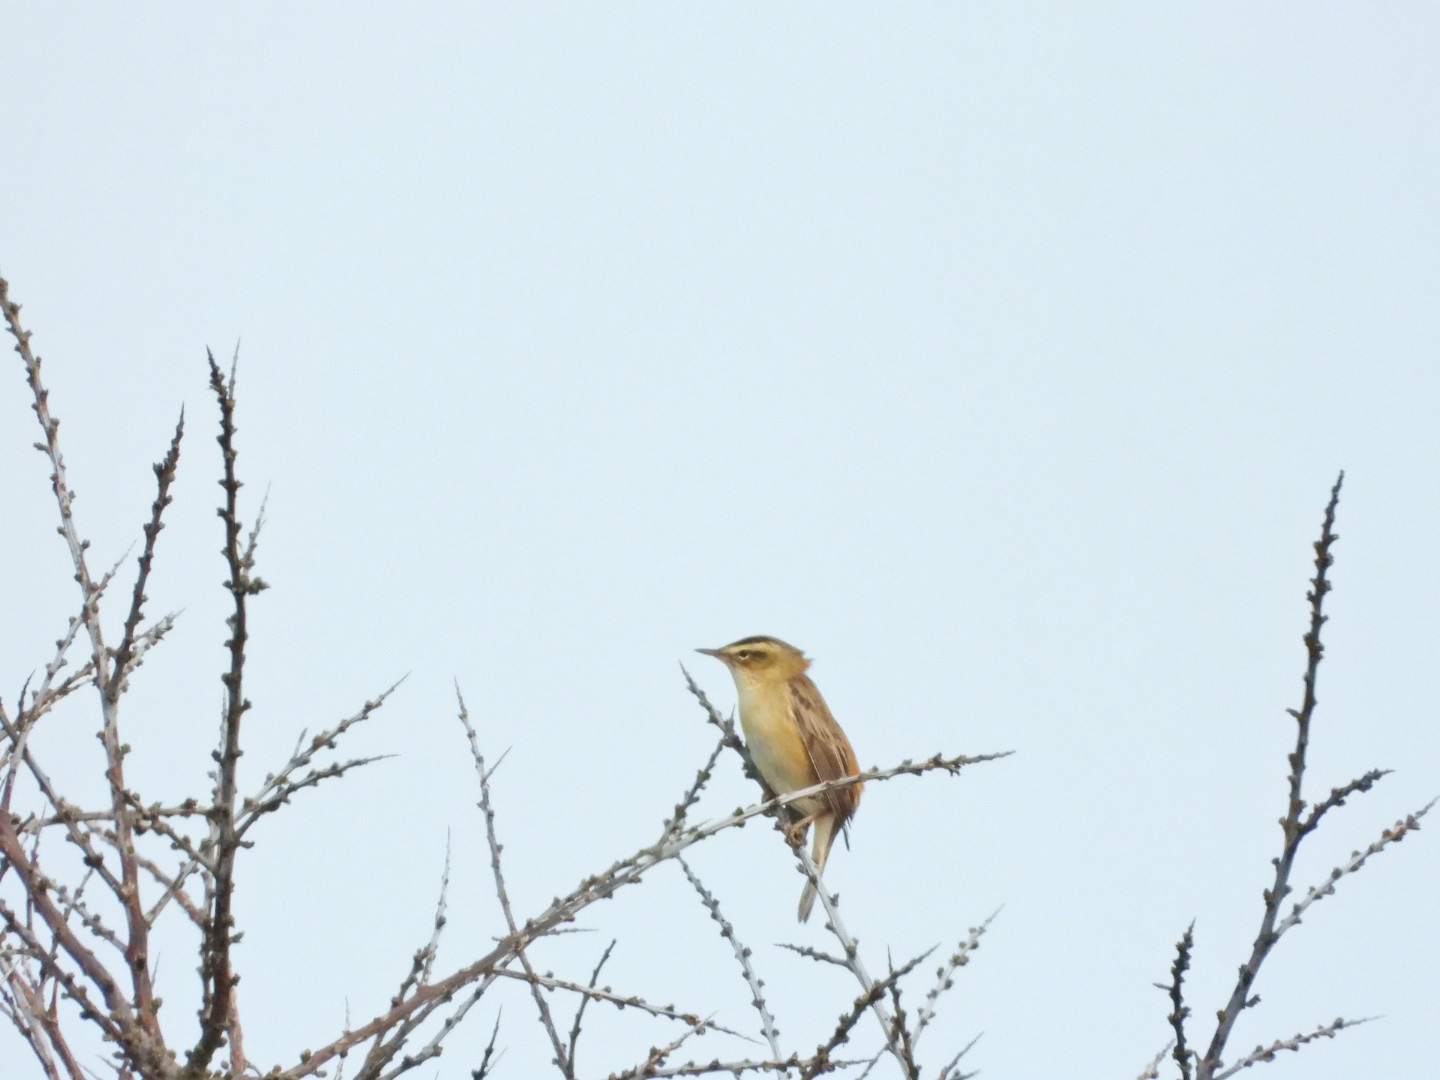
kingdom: Animalia
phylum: Chordata
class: Aves
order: Passeriformes
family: Acrocephalidae
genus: Acrocephalus
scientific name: Acrocephalus schoenobaenus
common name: Sivsanger
